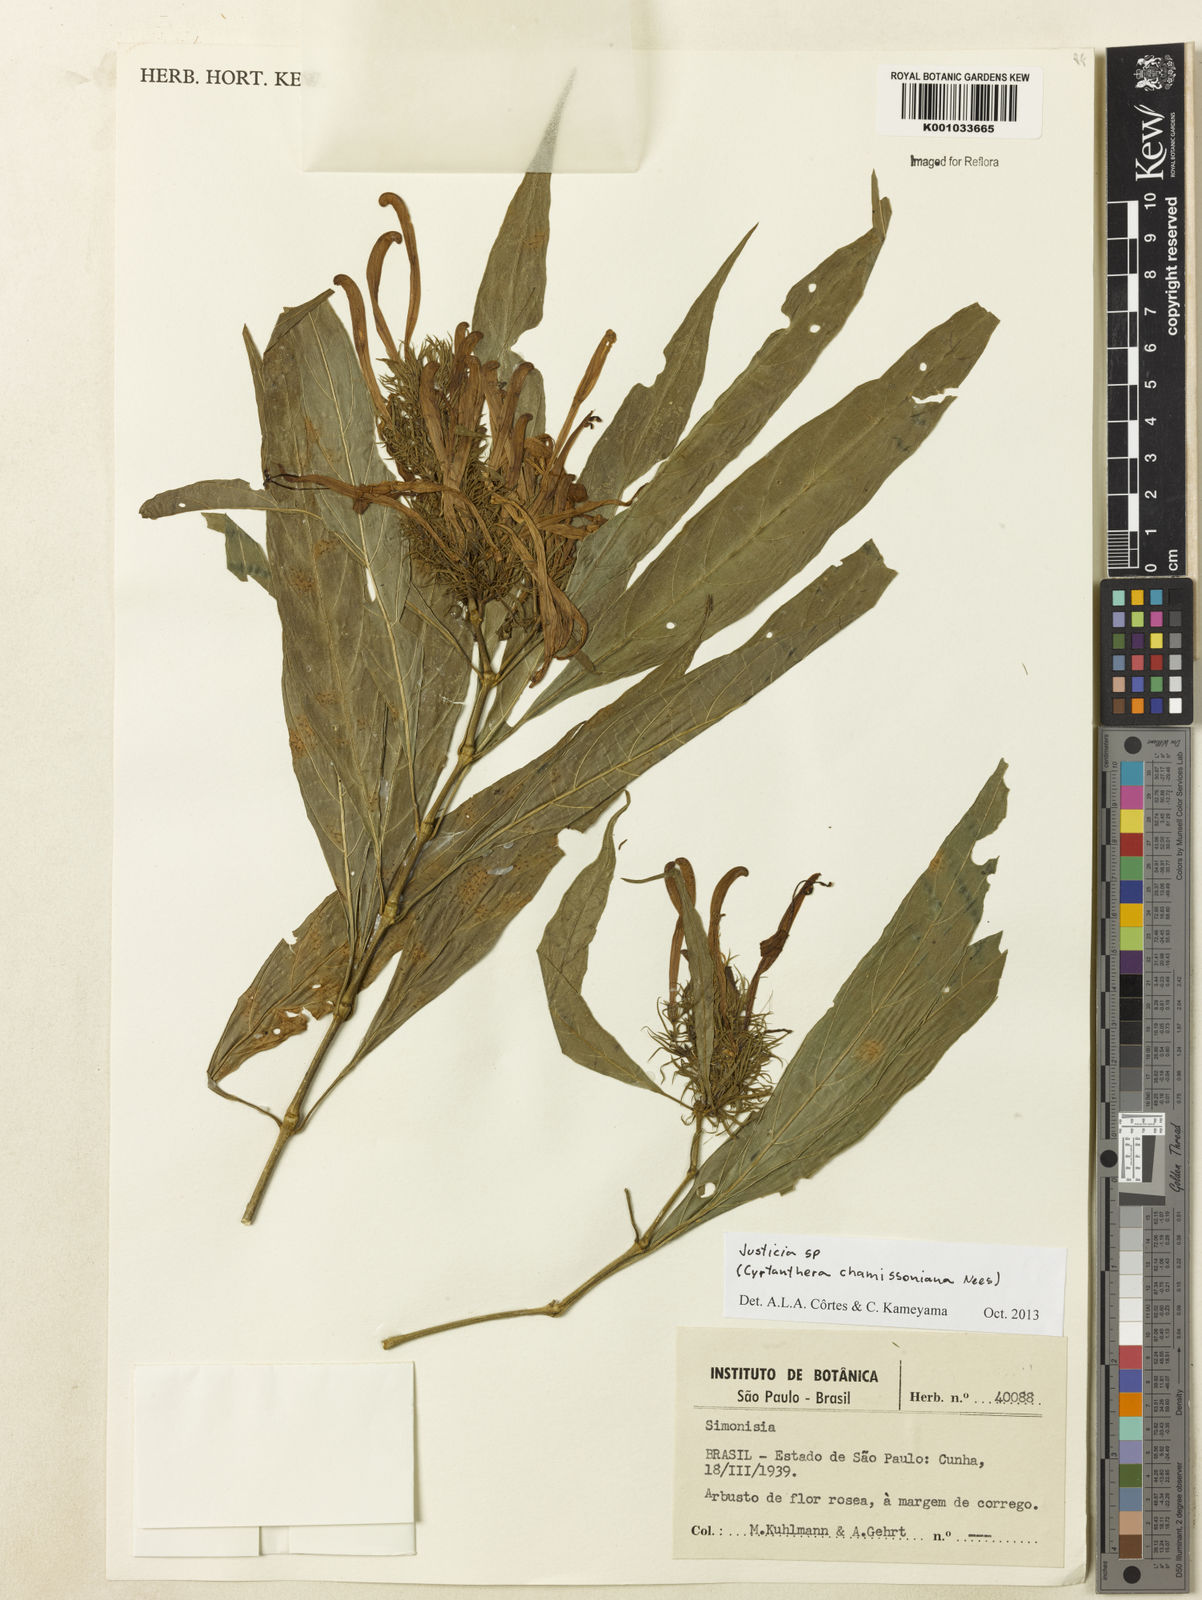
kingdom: Plantae
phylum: Tracheophyta
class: Magnoliopsida
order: Lamiales
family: Acanthaceae
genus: Justicia
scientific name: Justicia
